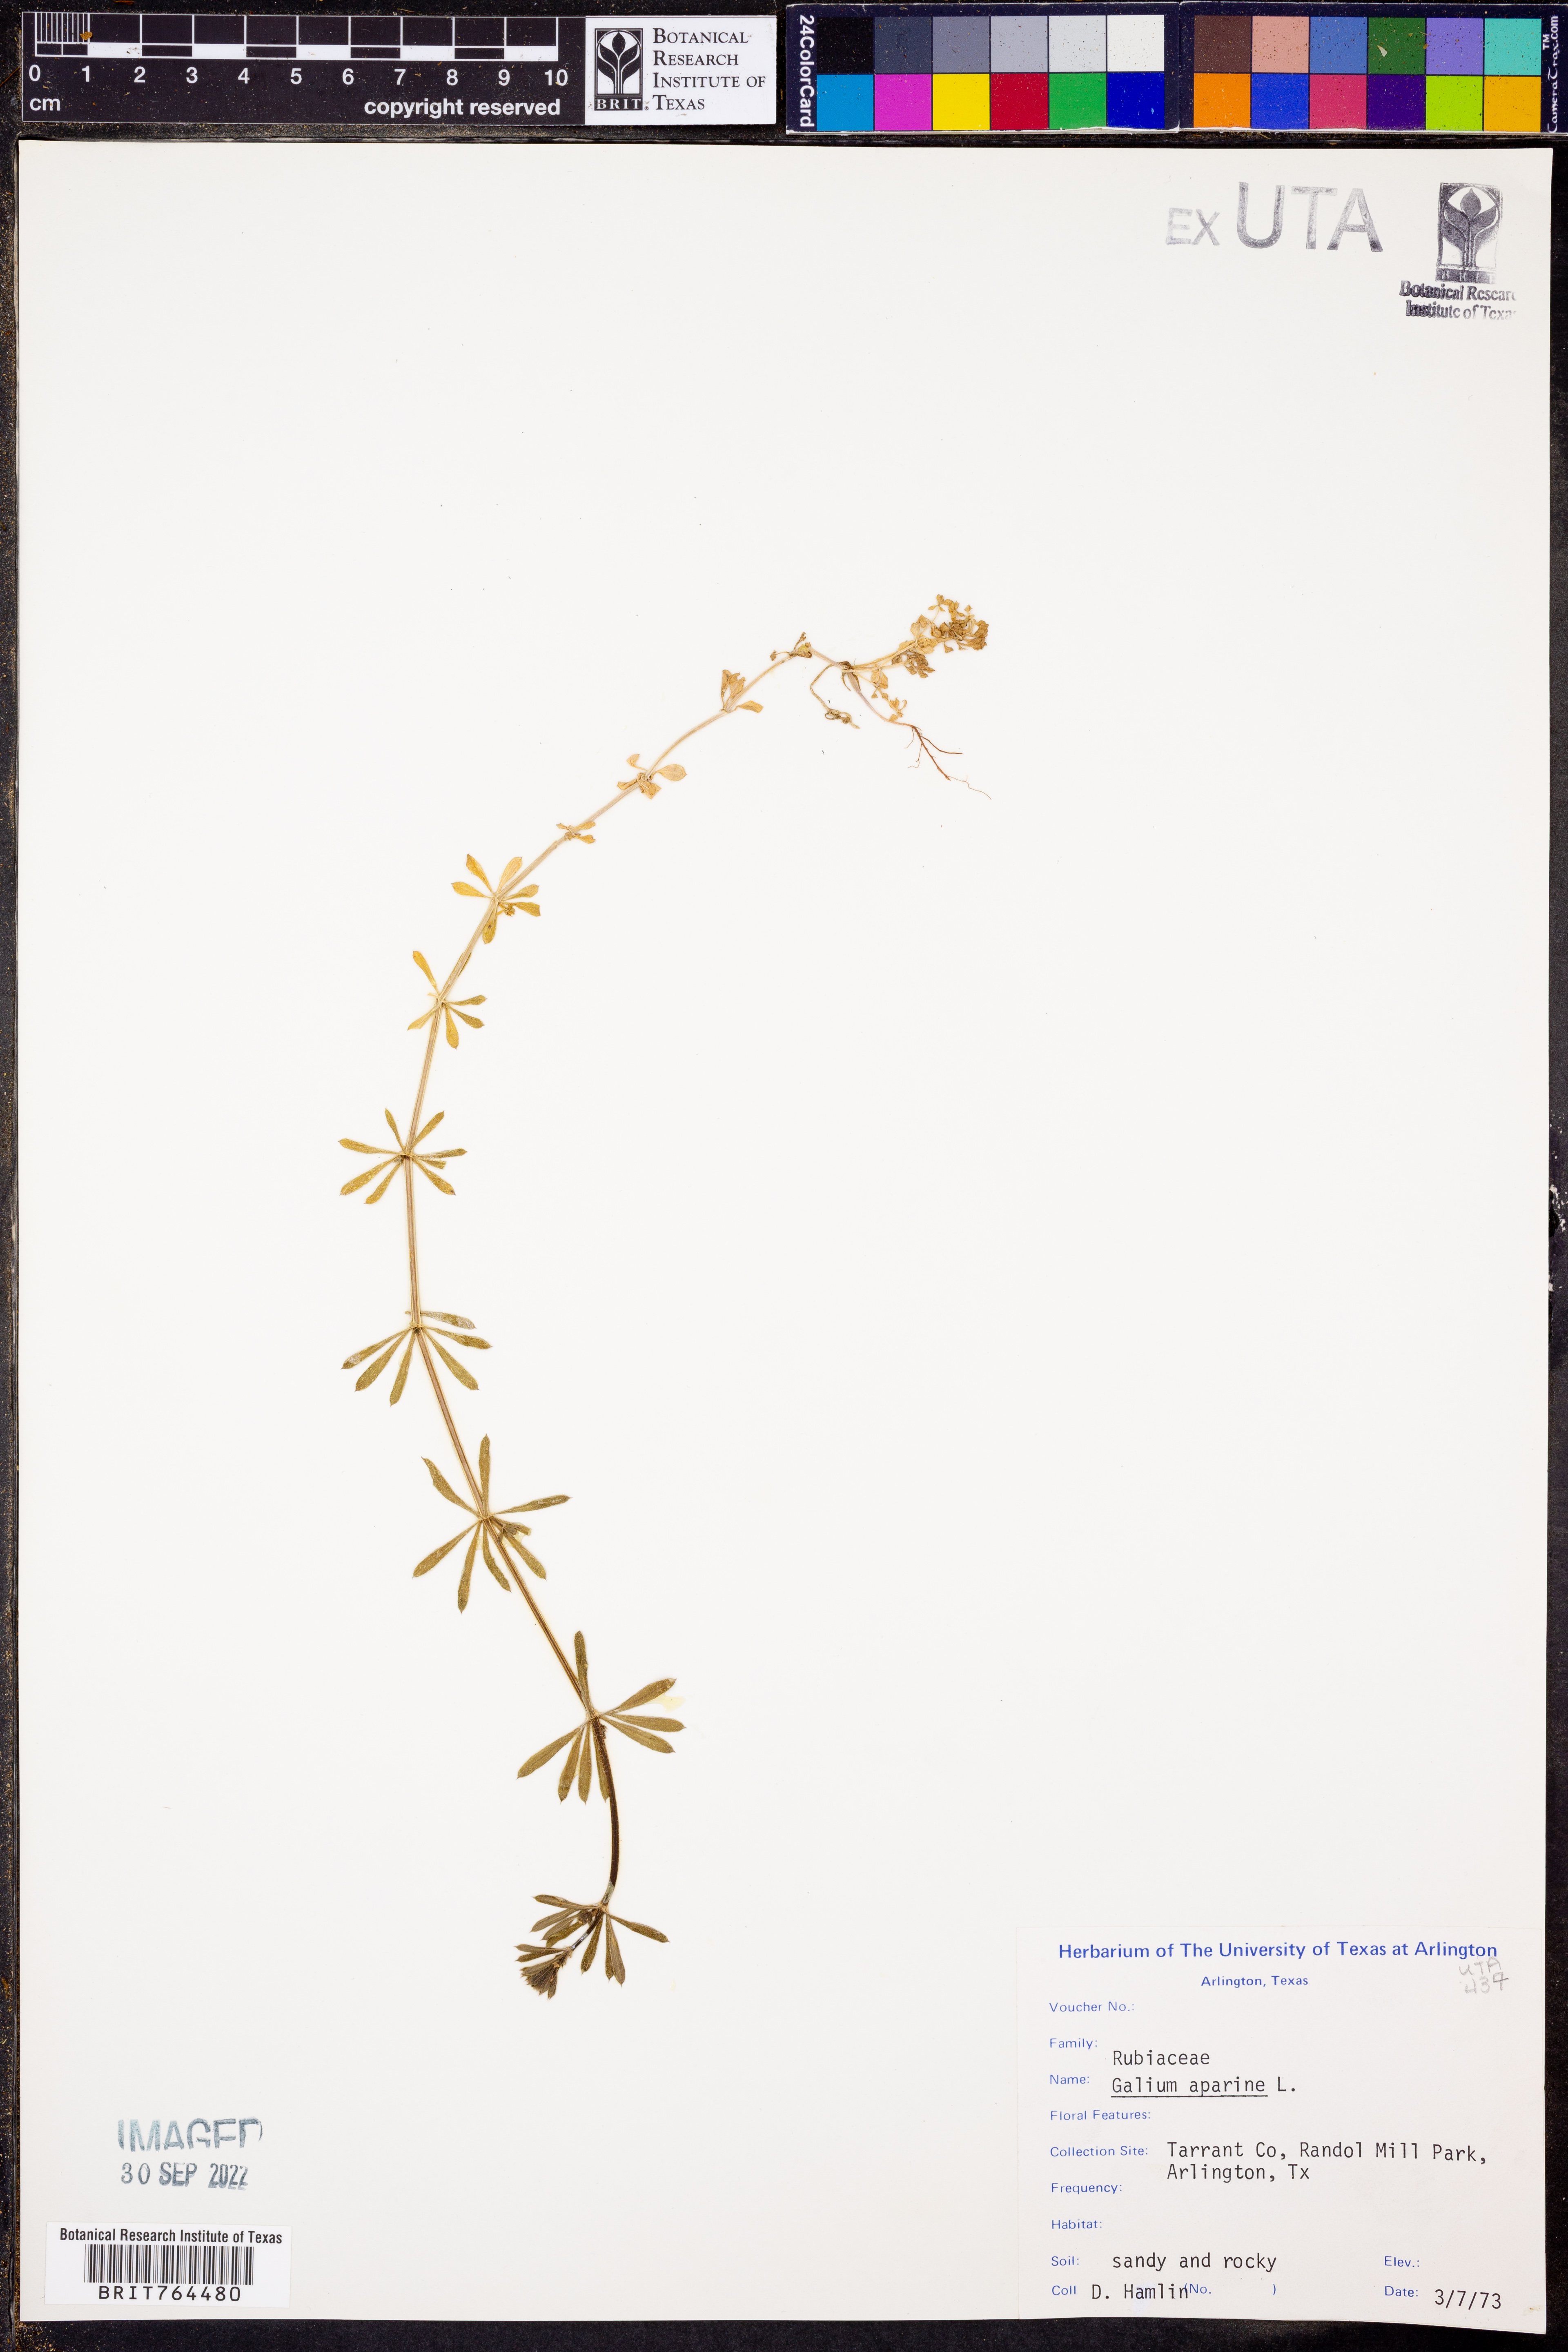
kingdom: Plantae
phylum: Tracheophyta
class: Magnoliopsida
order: Gentianales
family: Rubiaceae
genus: Galium
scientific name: Galium aparine
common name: Cleavers
